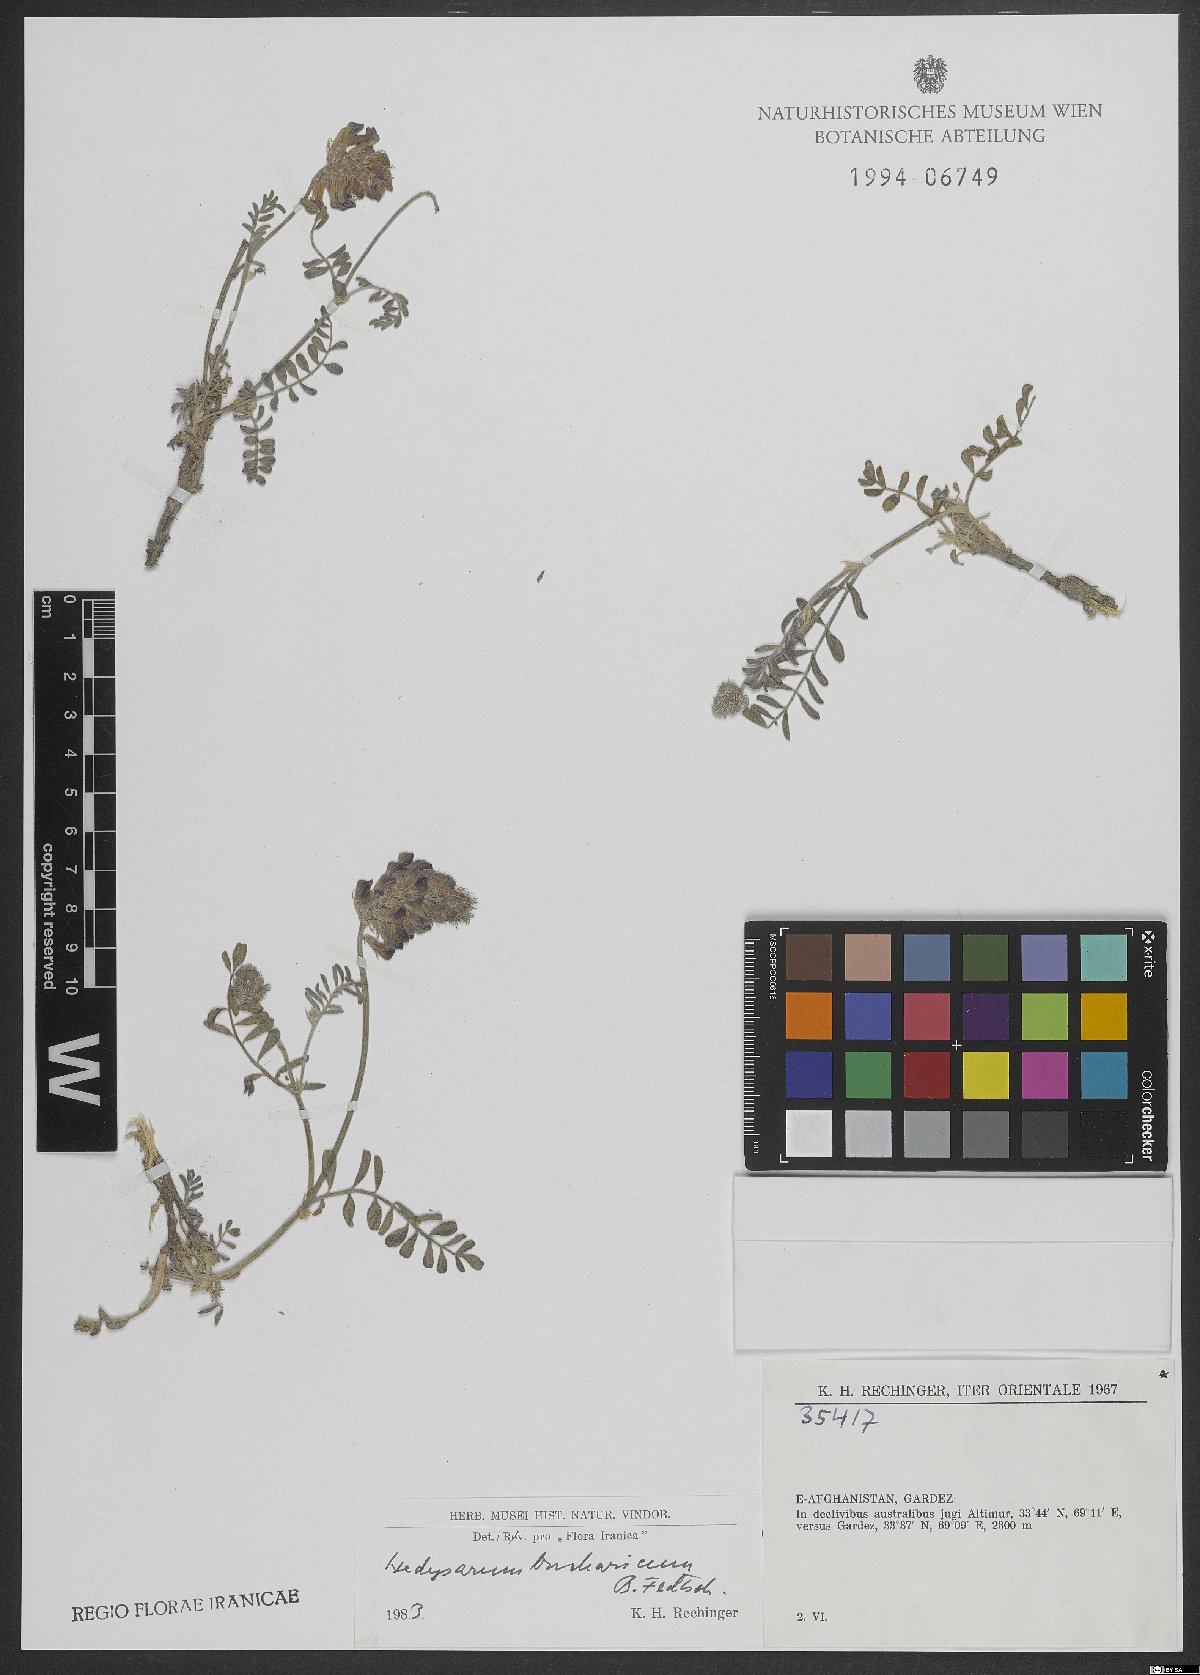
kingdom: Plantae
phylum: Tracheophyta
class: Magnoliopsida
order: Fabales
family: Fabaceae
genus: Hedysarum
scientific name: Hedysarum bucharicum
